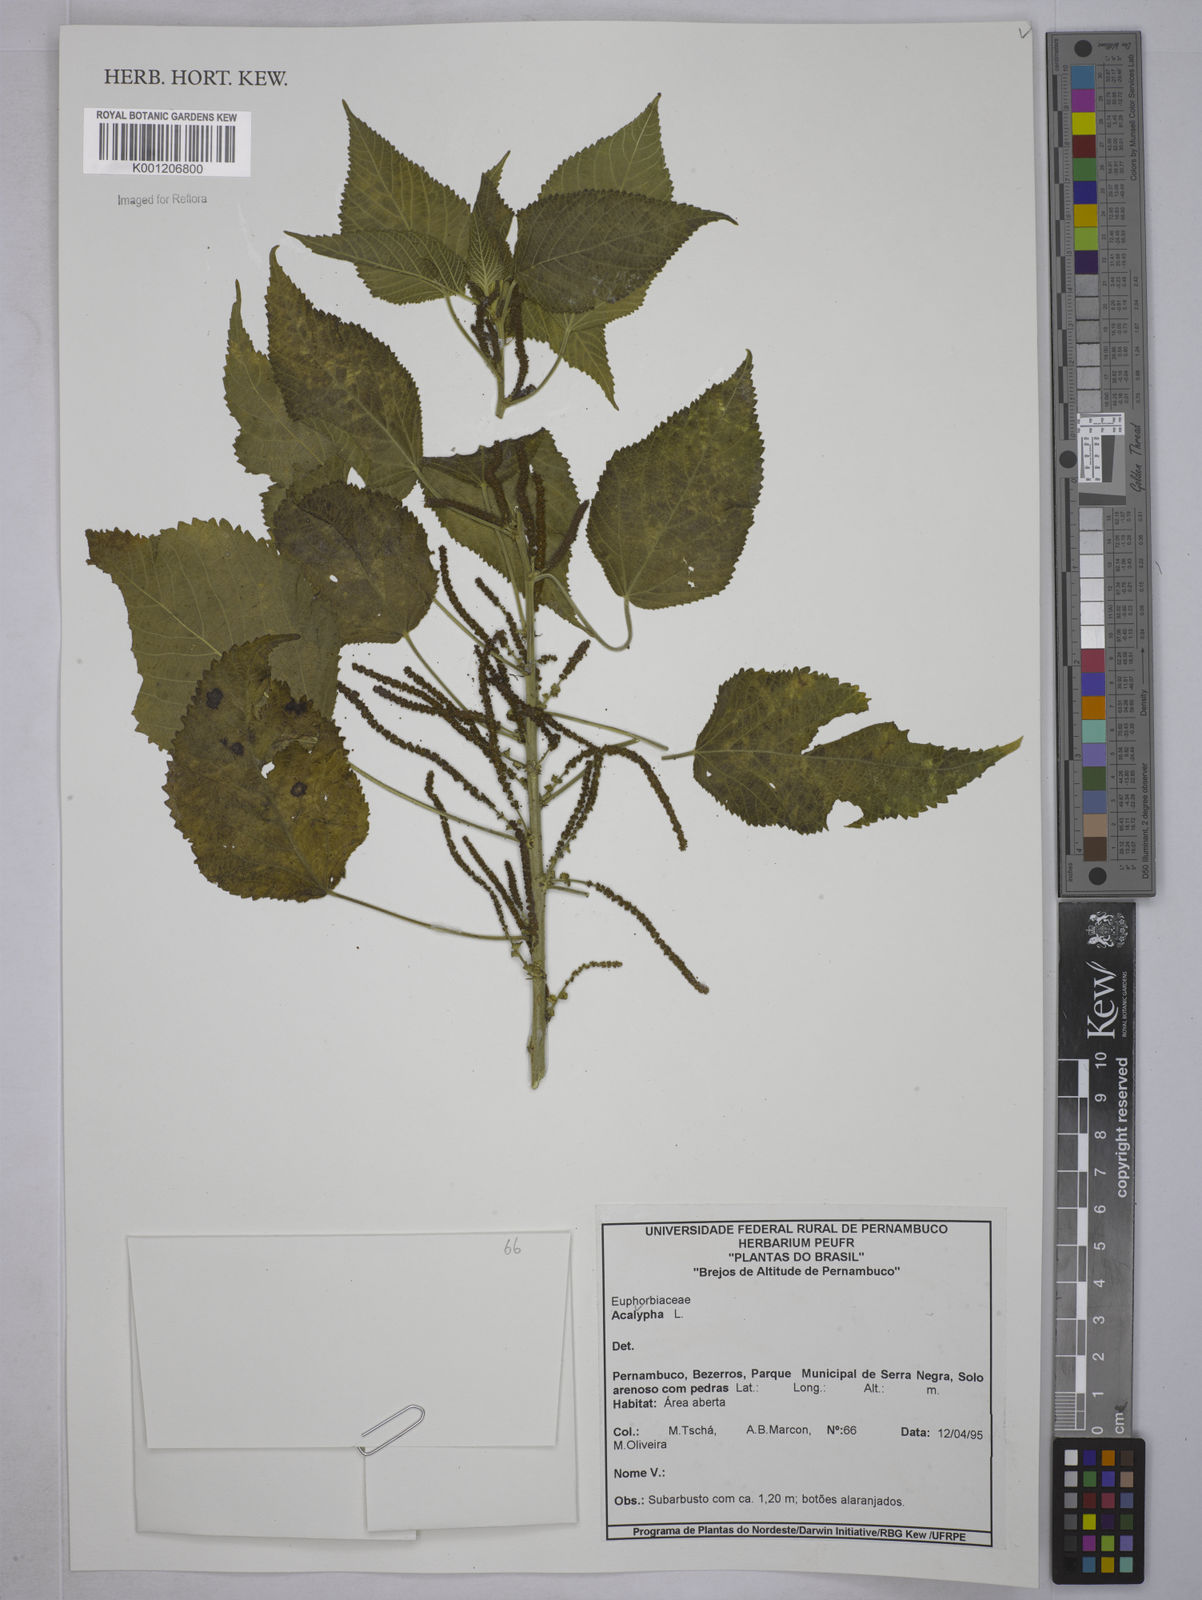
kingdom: Plantae
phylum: Tracheophyta
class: Magnoliopsida
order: Malpighiales
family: Euphorbiaceae
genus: Acalypha
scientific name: Acalypha
